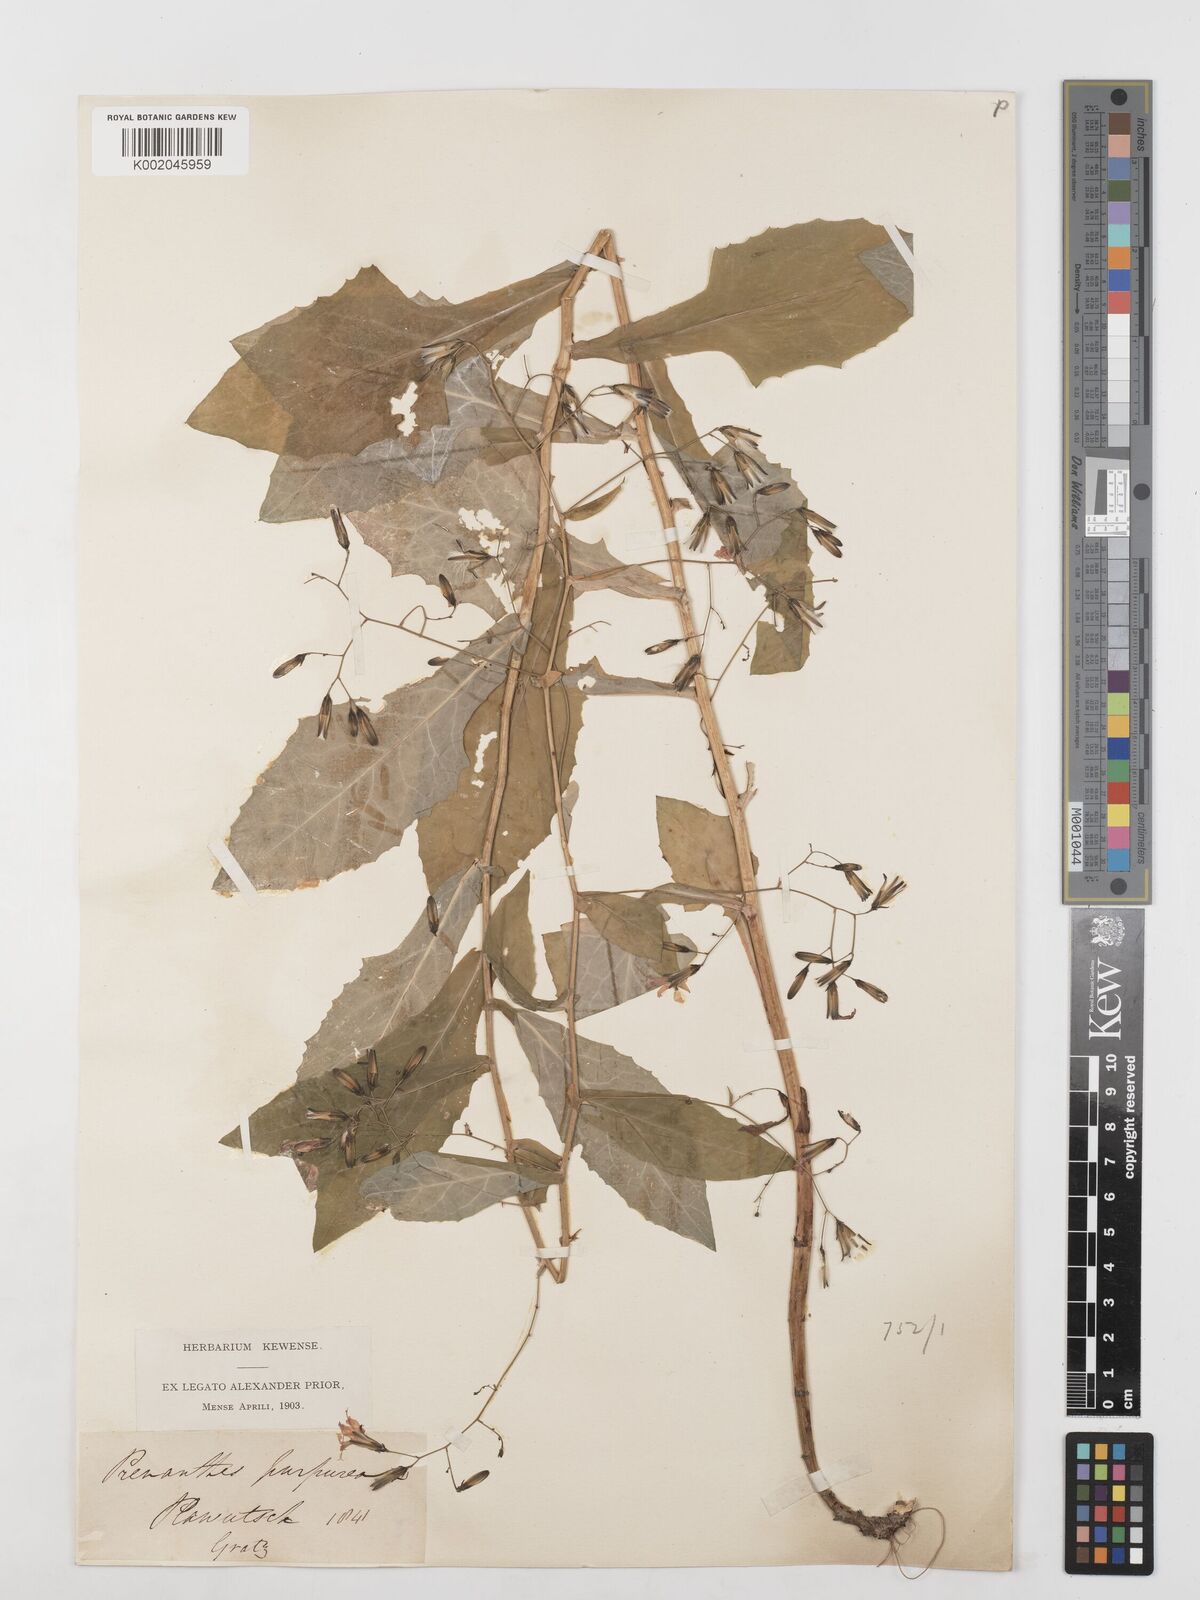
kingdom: Plantae
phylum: Tracheophyta
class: Magnoliopsida
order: Asterales
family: Asteraceae
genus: Prenanthes
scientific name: Prenanthes purpurea
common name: Purple lettuce
